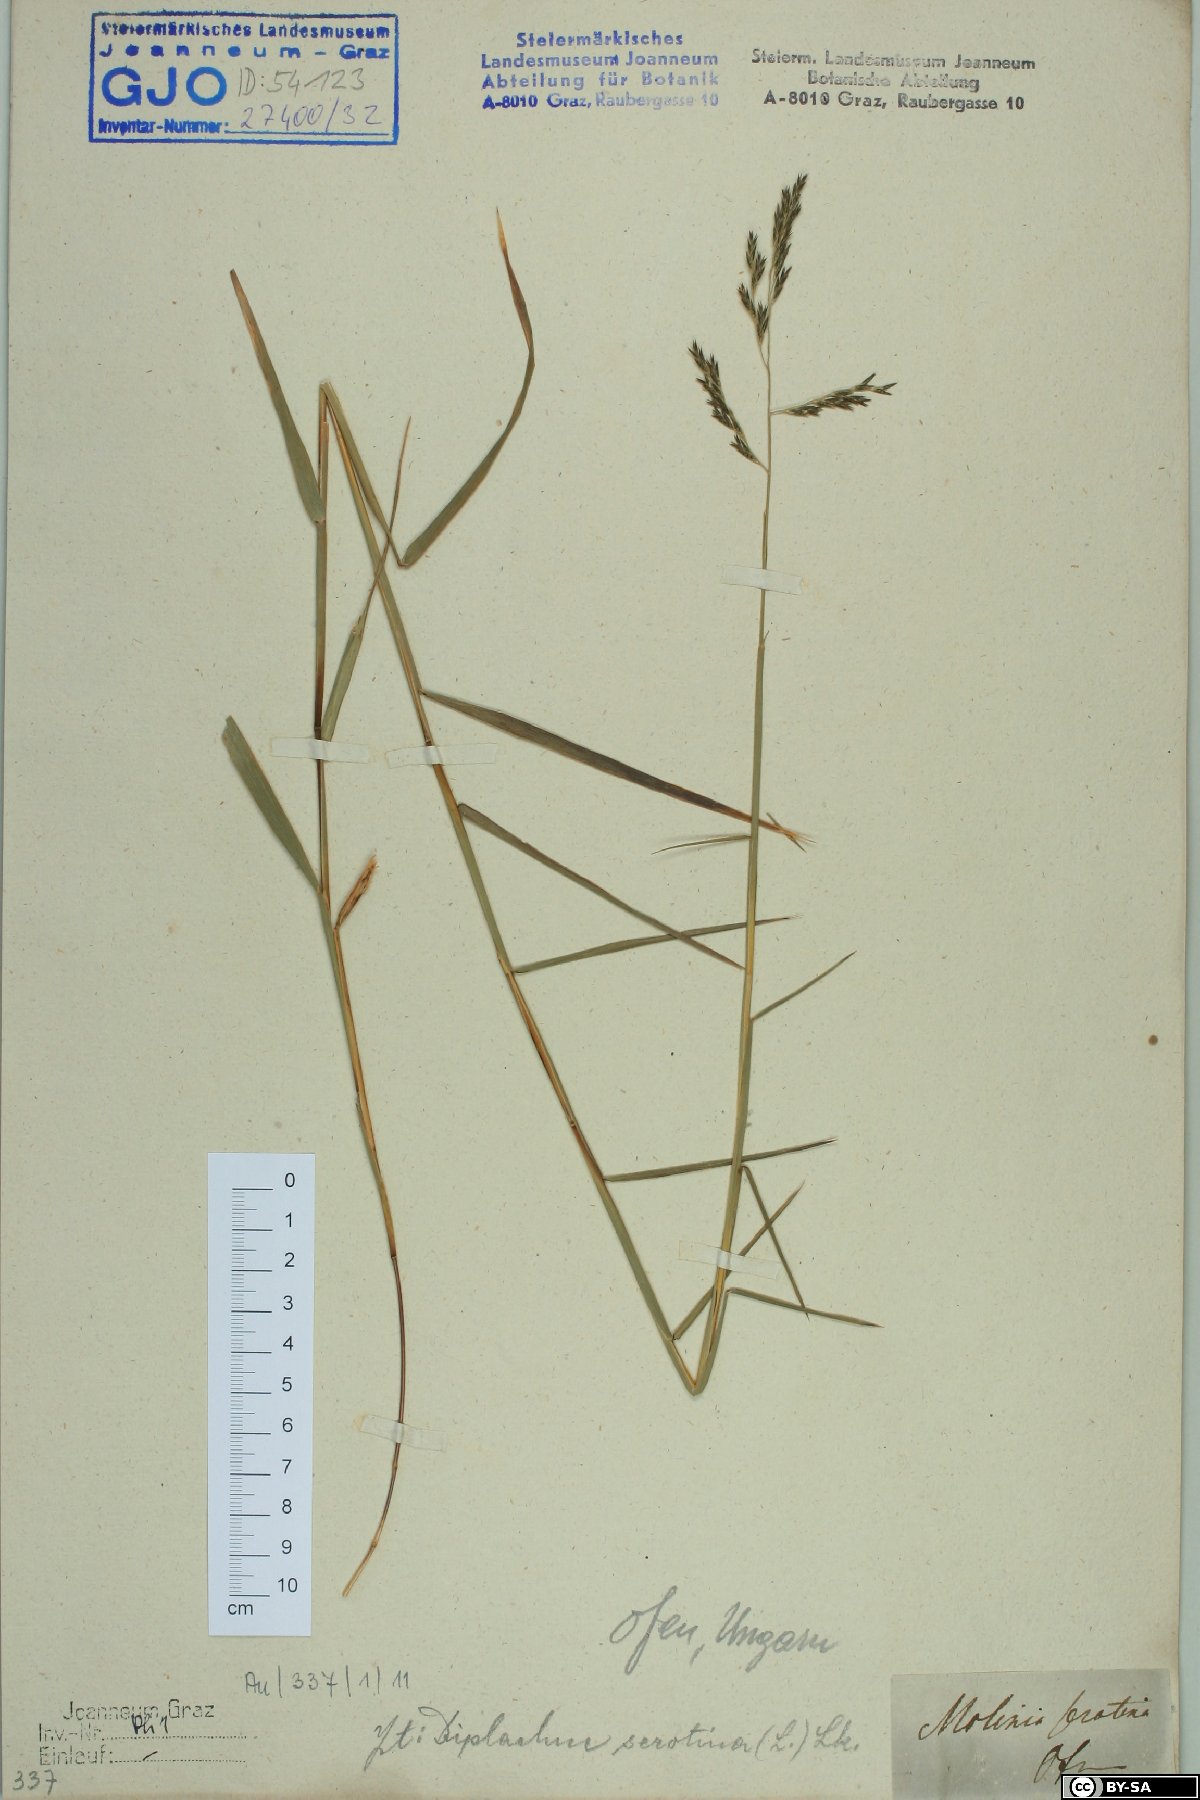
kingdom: Plantae
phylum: Tracheophyta
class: Liliopsida
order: Poales
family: Poaceae
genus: Cleistogenes
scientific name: Cleistogenes serotina
